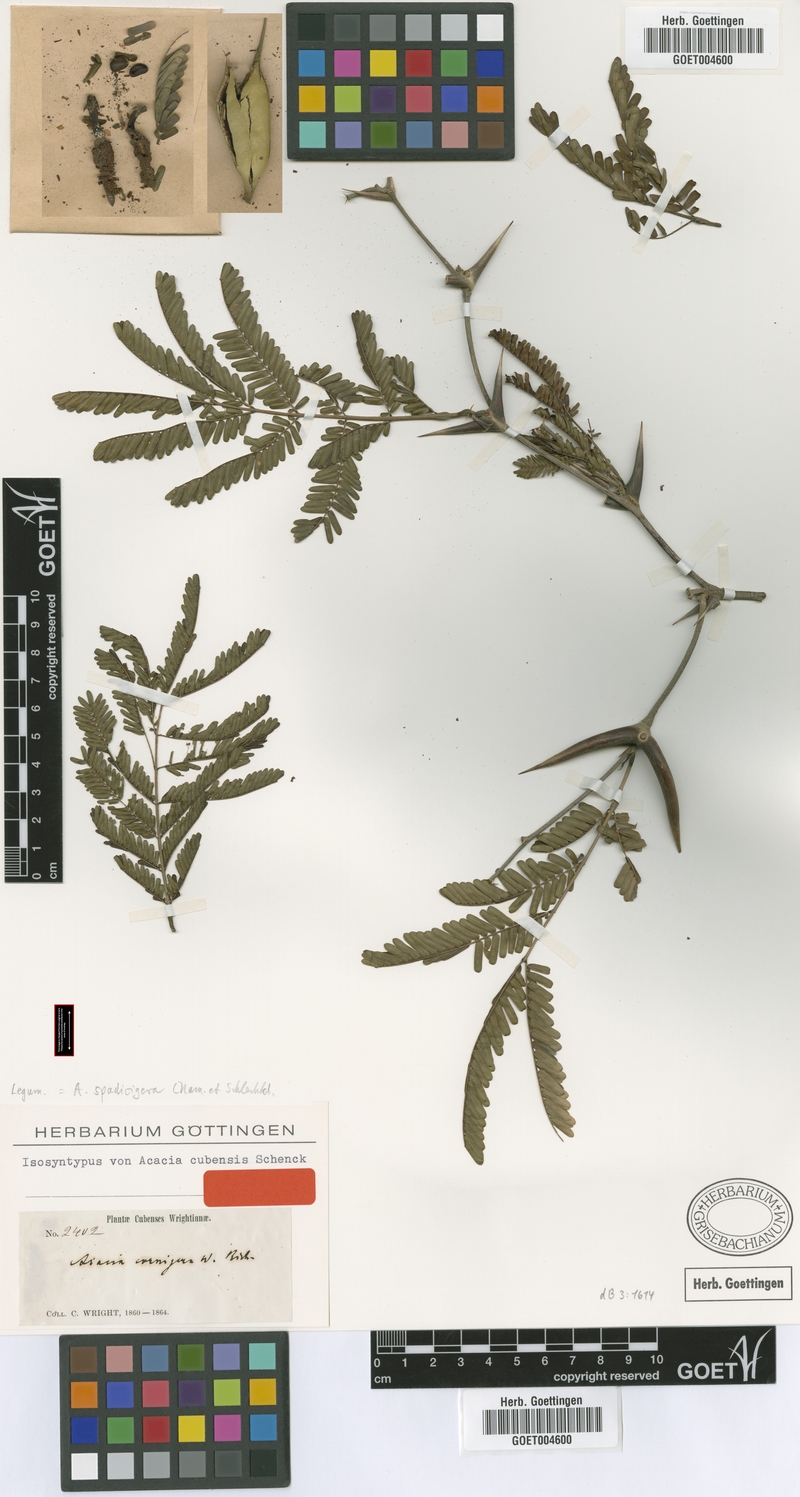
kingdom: Plantae
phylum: Tracheophyta
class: Magnoliopsida
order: Fabales
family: Fabaceae
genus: Vachellia
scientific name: Vachellia cornigera
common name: Bullhorn wattle
